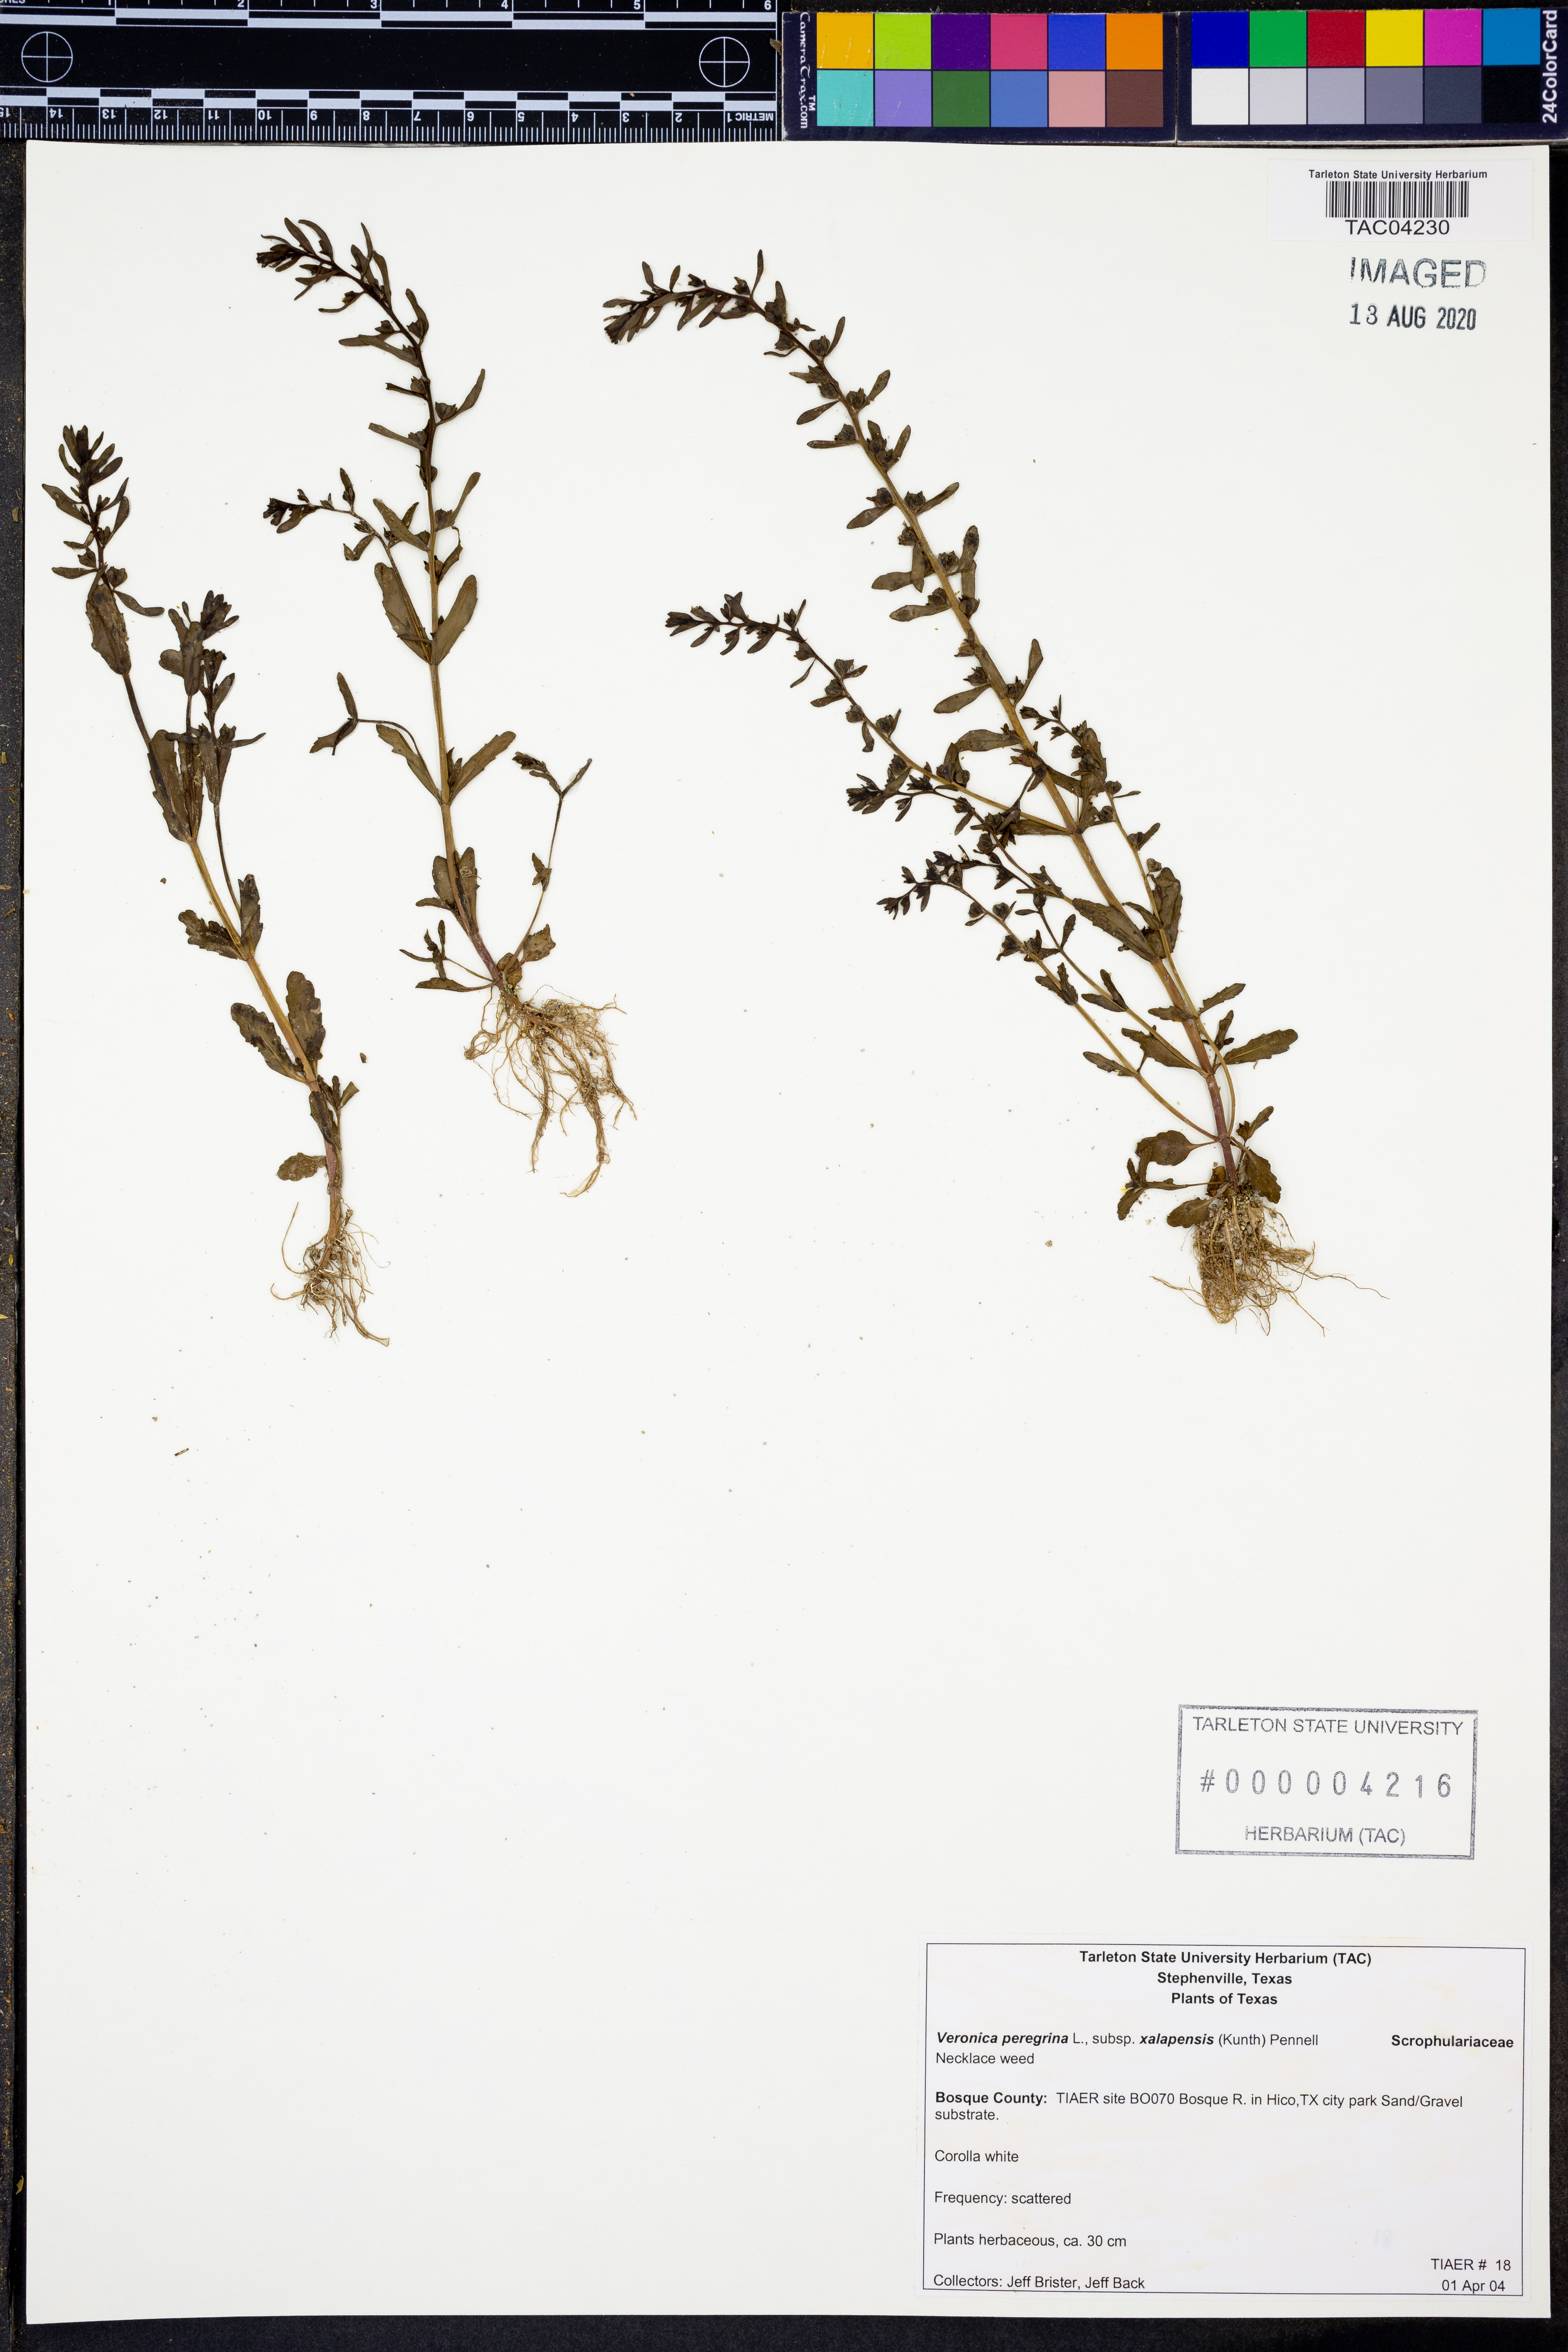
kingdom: Plantae
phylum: Tracheophyta
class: Magnoliopsida
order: Lamiales
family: Plantaginaceae
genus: Veronica
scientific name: Veronica peregrina
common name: Neckweed
